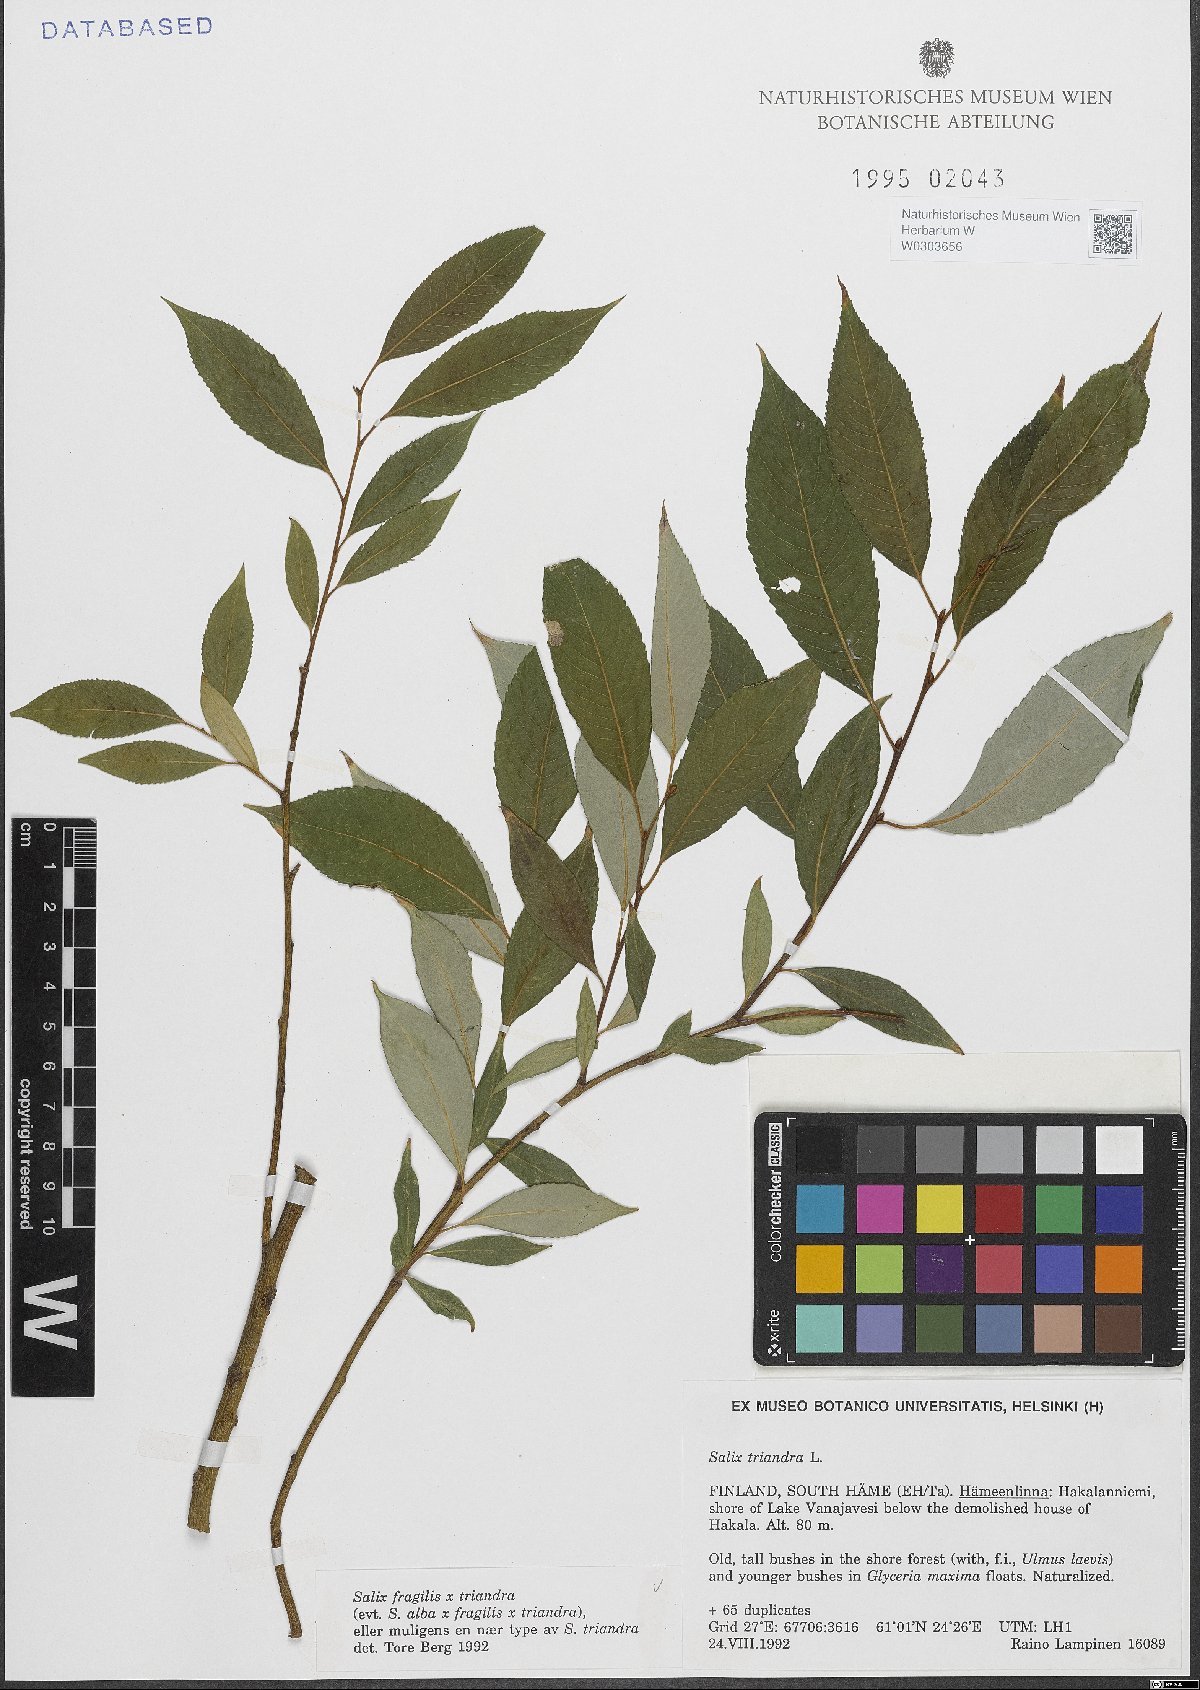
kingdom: Plantae
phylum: Tracheophyta
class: Magnoliopsida
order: Malpighiales
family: Salicaceae
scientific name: Salicaceae
